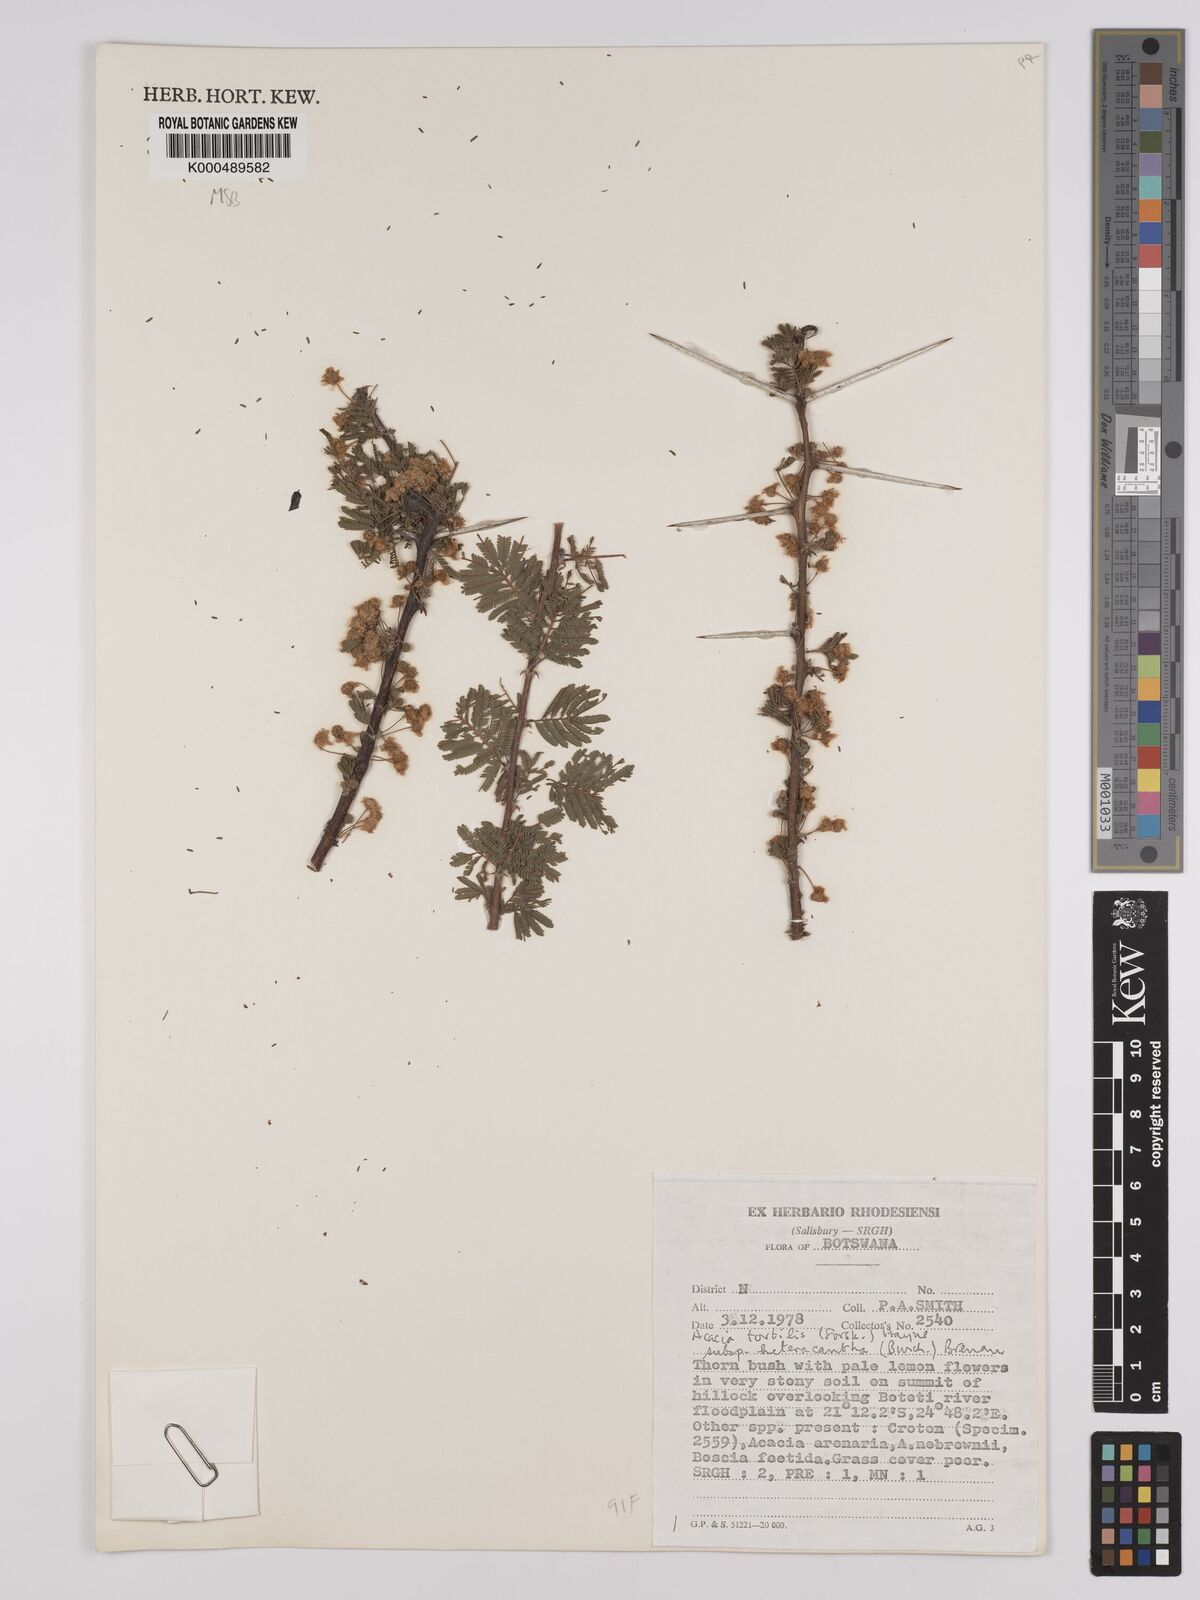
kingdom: Plantae
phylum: Tracheophyta
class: Magnoliopsida
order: Fabales
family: Fabaceae
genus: Vachellia
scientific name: Vachellia tortilis
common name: Umbrella thorn acacia
